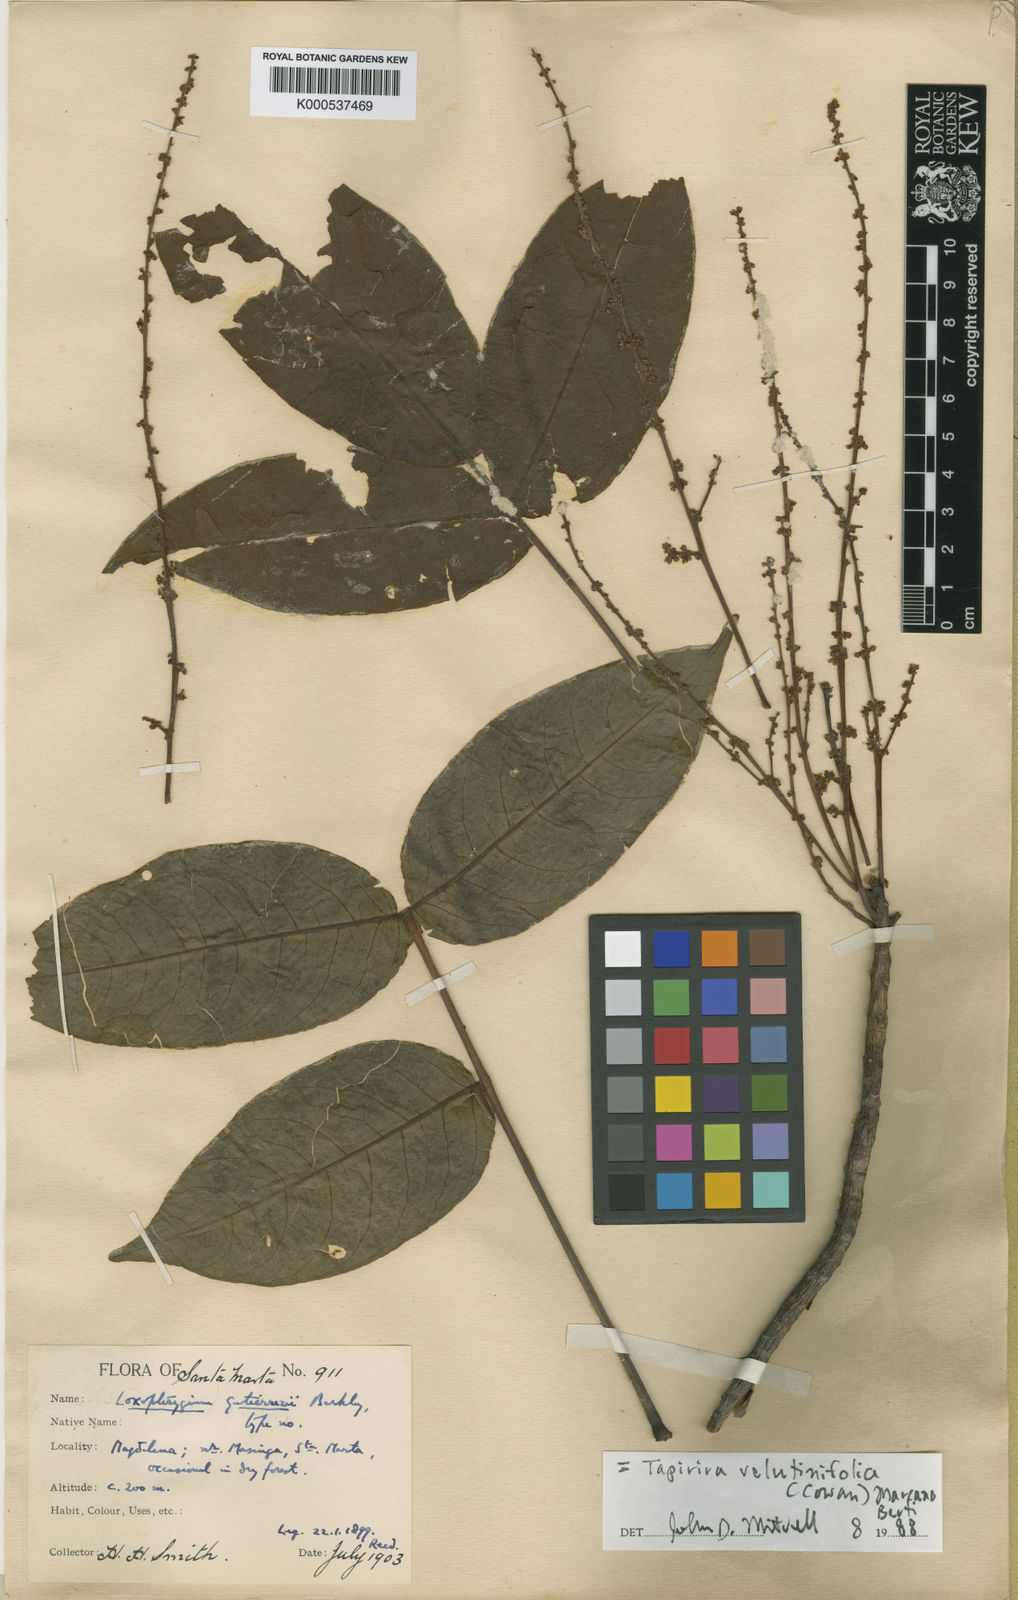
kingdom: Plantae
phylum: Tracheophyta
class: Magnoliopsida
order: Sapindales
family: Anacardiaceae
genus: Cyrtocarpa
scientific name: Cyrtocarpa velutinifolia
